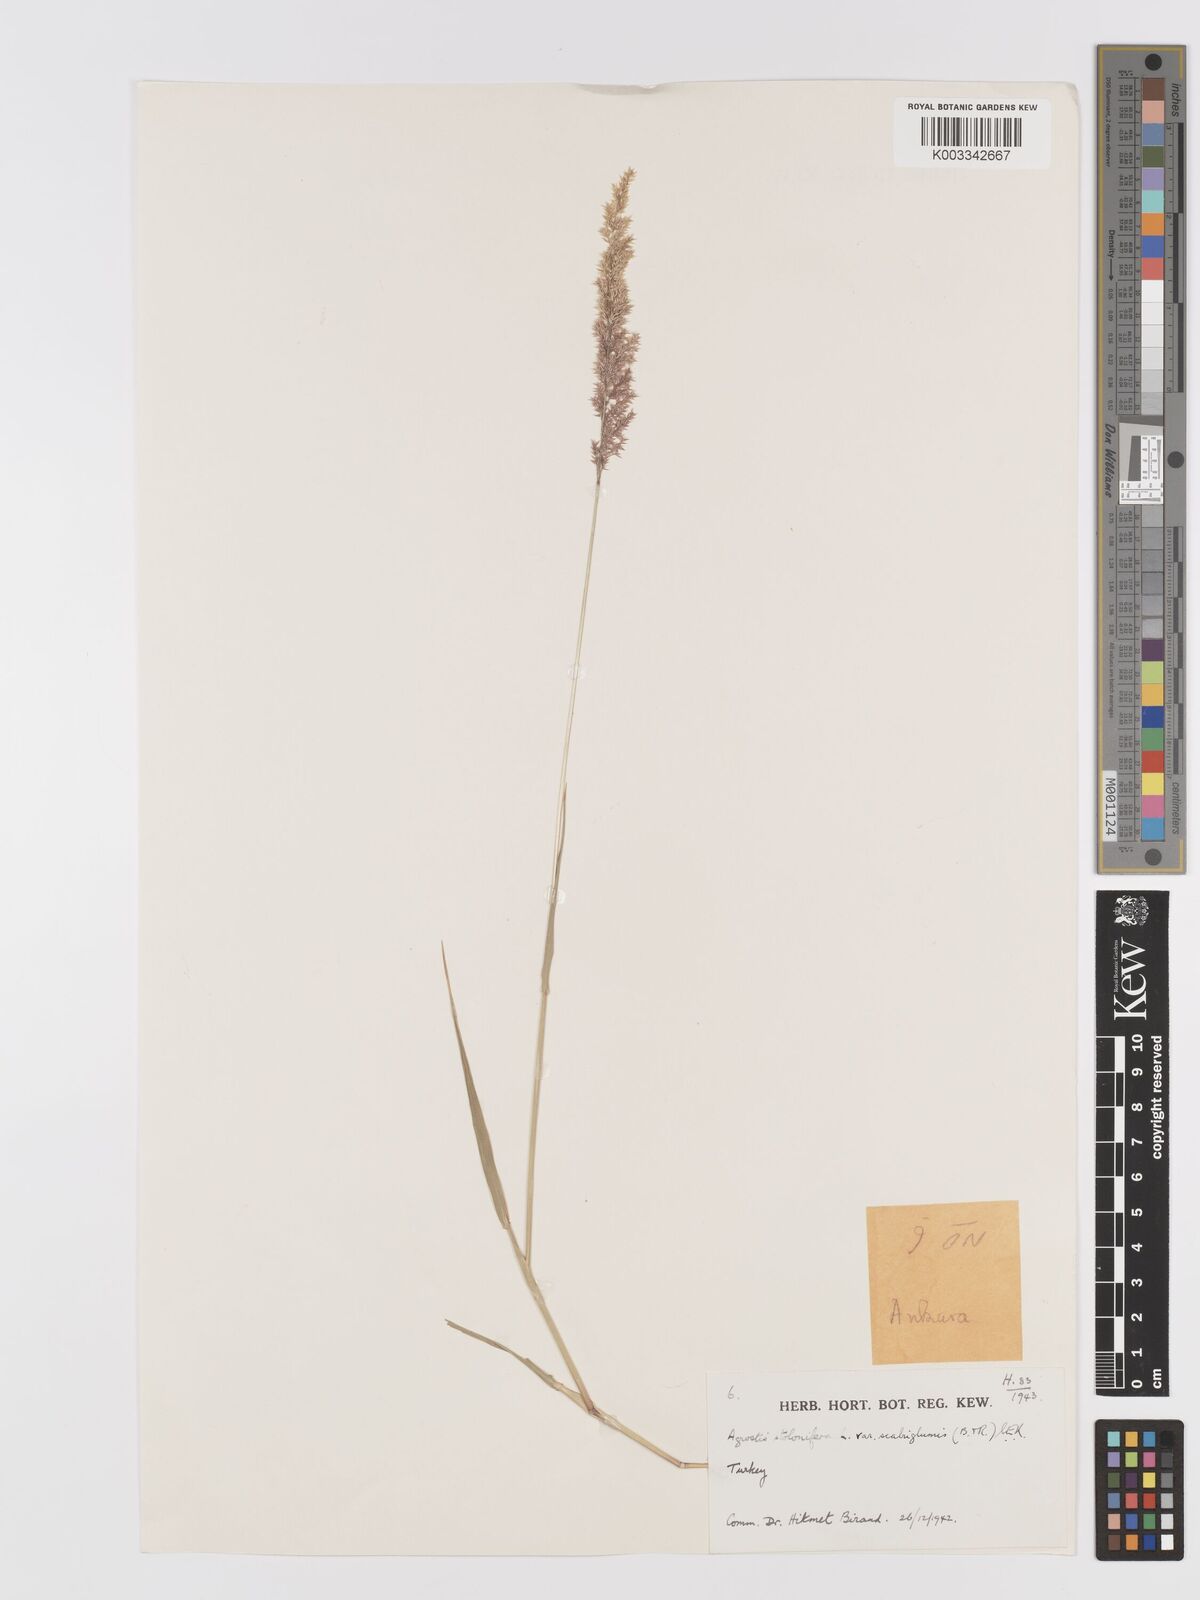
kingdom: Plantae
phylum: Tracheophyta
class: Liliopsida
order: Poales
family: Poaceae
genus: Agrostis
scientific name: Agrostis gigantea
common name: Black bent
